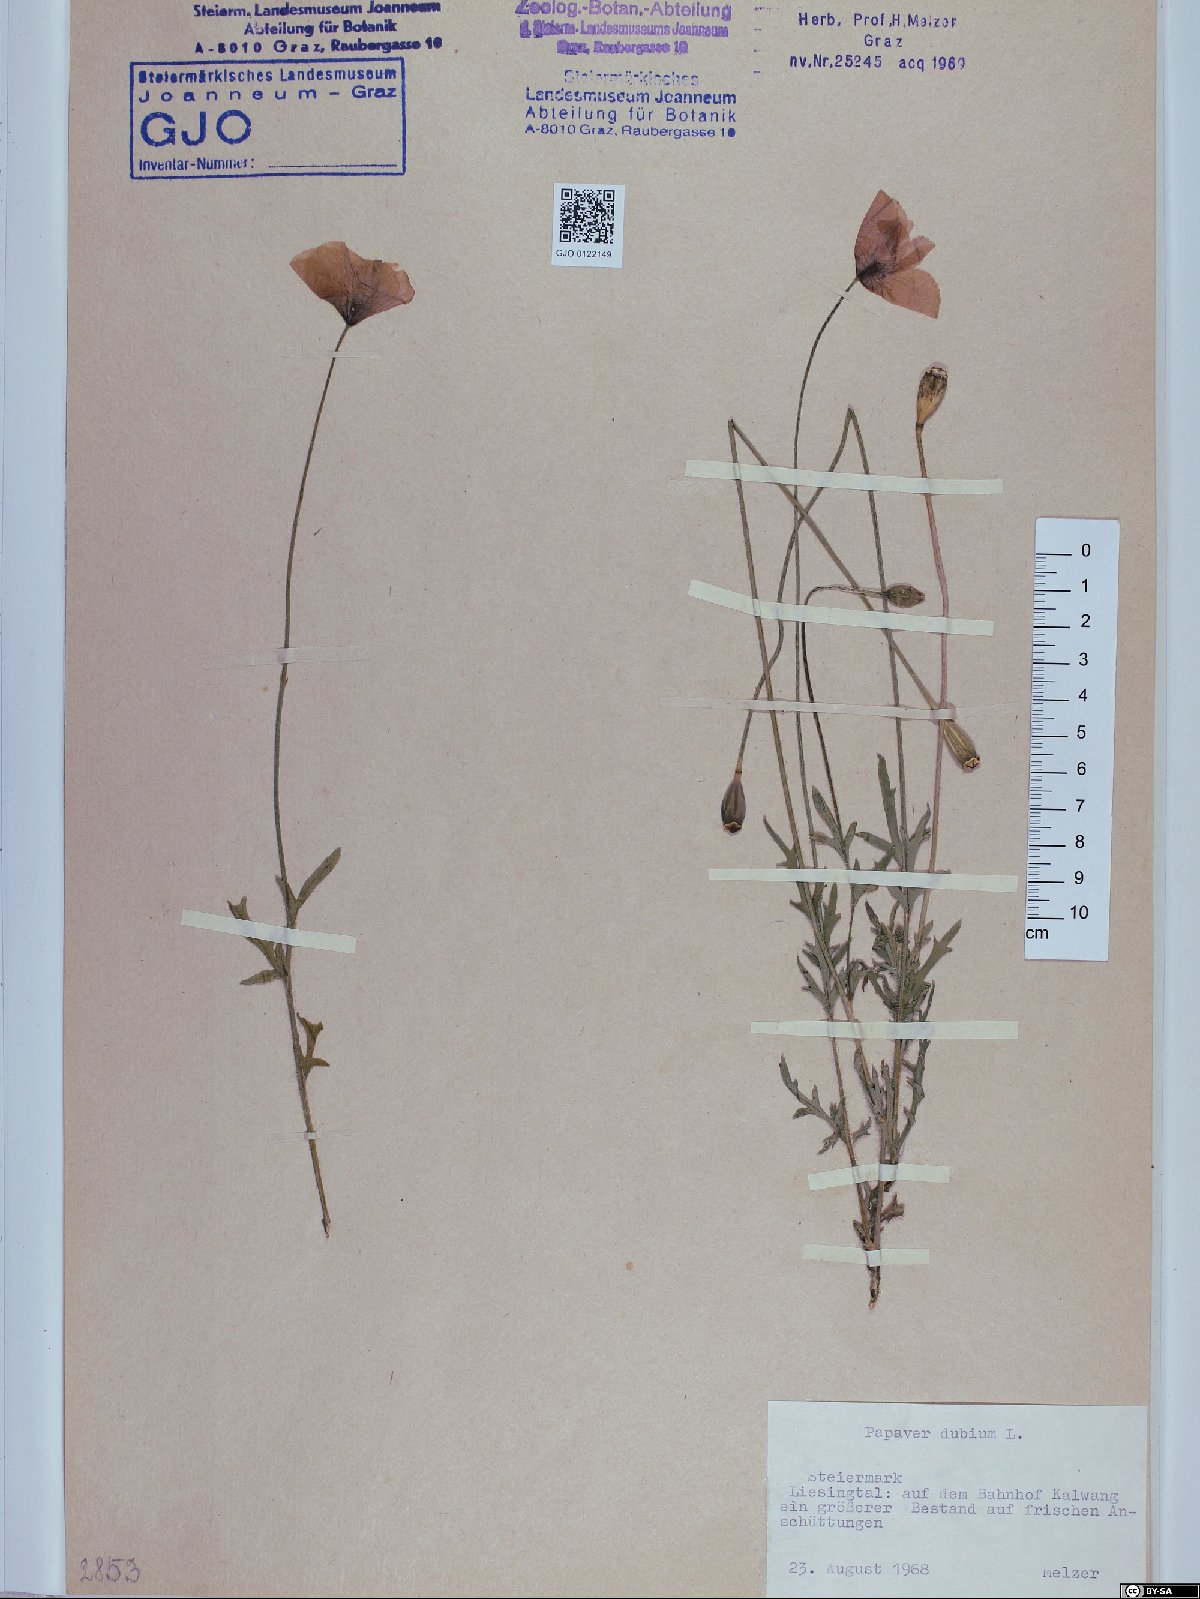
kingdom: Plantae
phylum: Tracheophyta
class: Magnoliopsida
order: Ranunculales
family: Papaveraceae
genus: Papaver
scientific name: Papaver dubium
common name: Long-headed poppy
